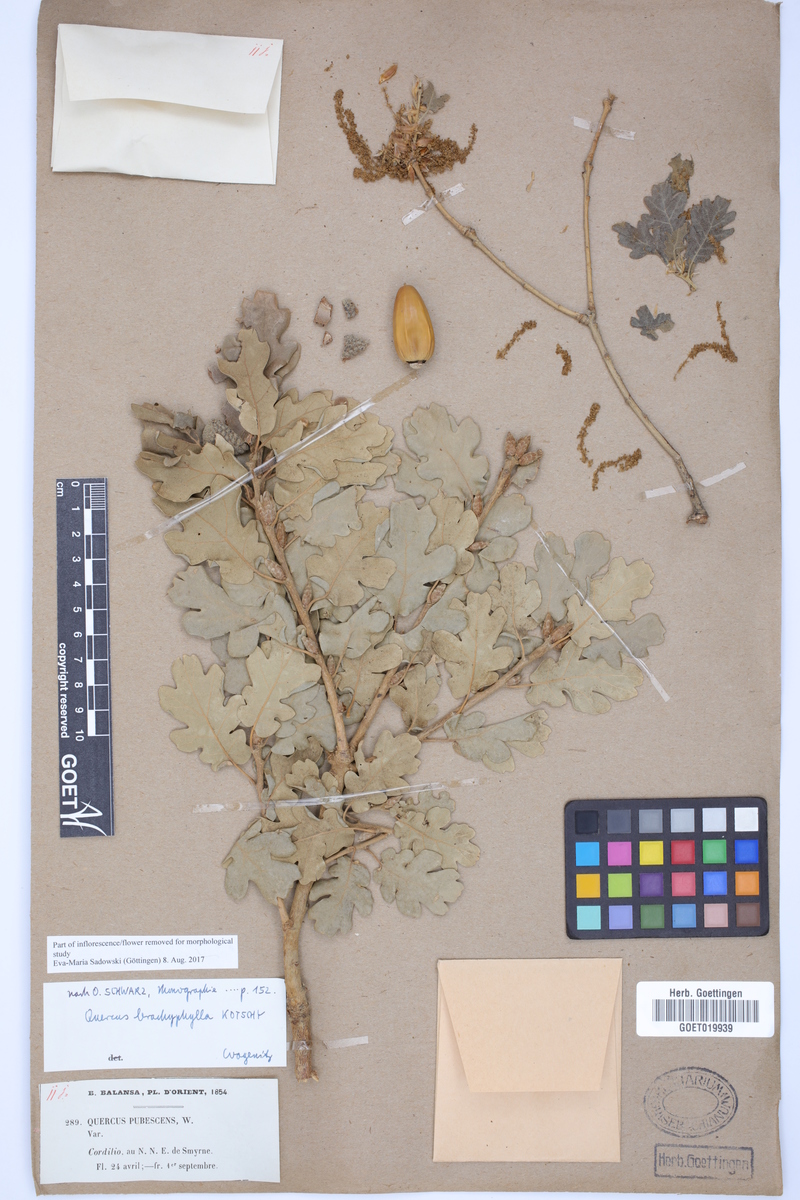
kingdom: Plantae
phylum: Tracheophyta
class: Magnoliopsida
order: Fagales
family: Fagaceae
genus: Quercus
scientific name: Quercus pubescens
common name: Downy oak
